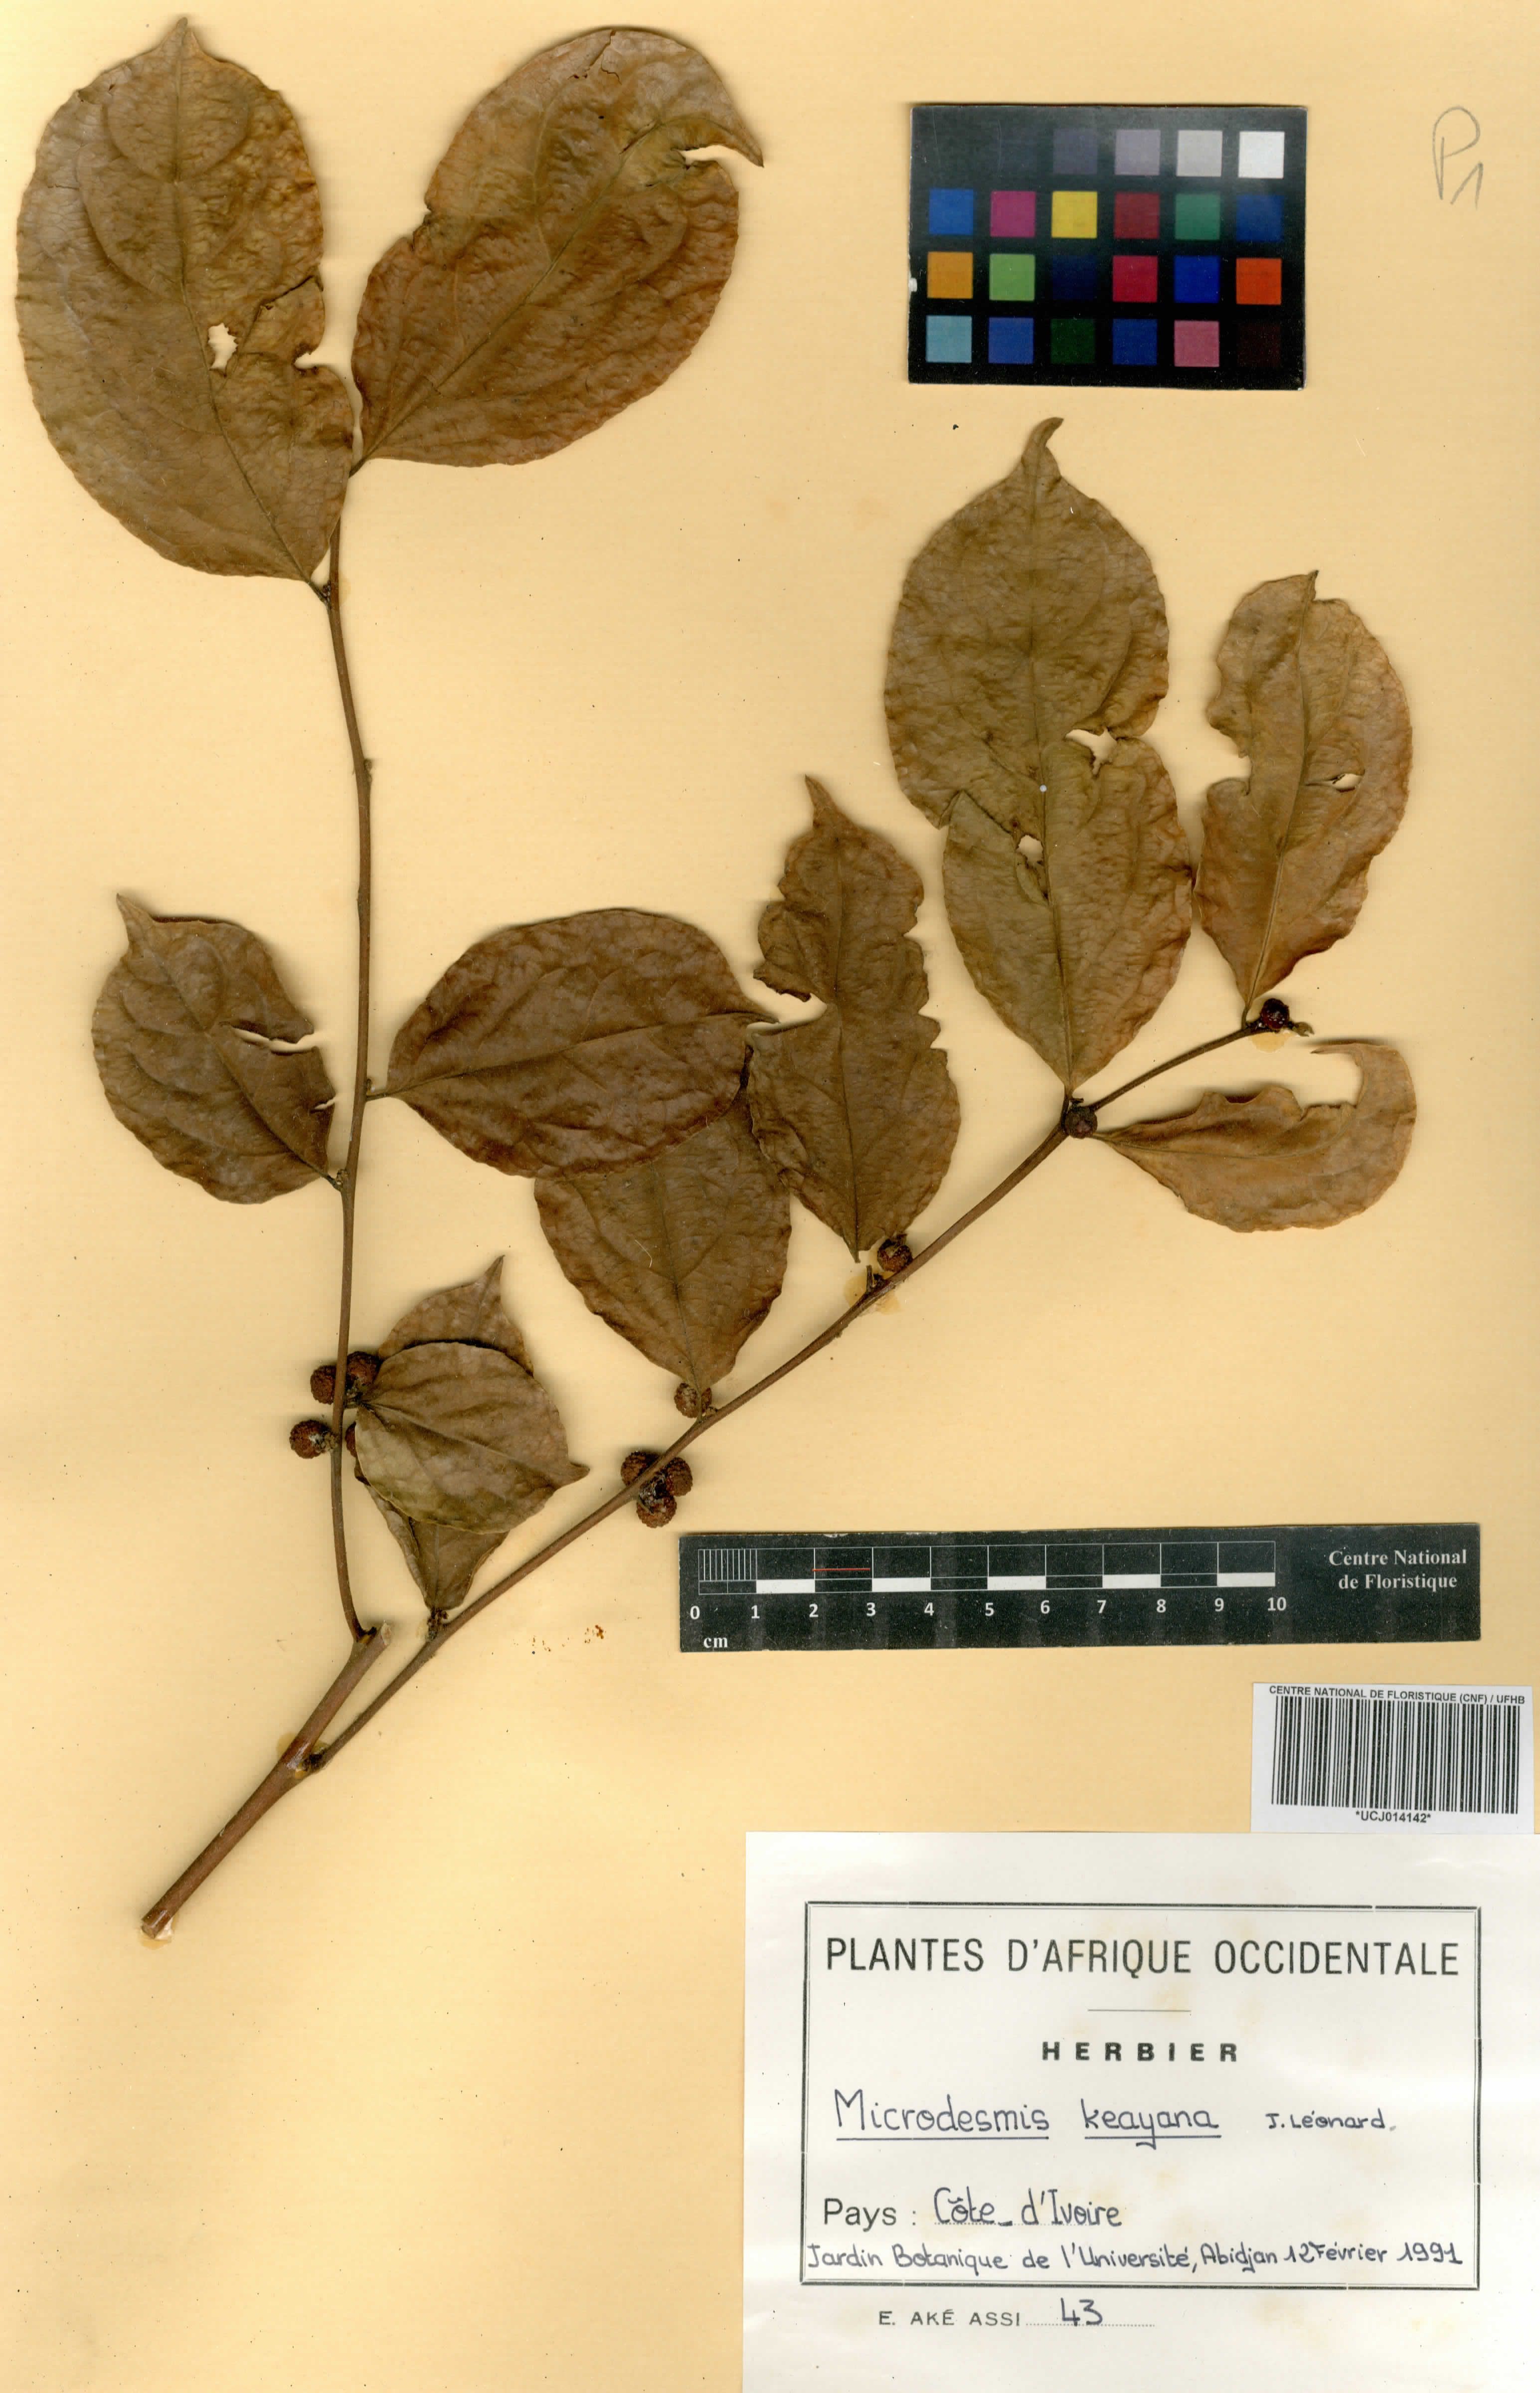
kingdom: Plantae
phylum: Tracheophyta
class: Magnoliopsida
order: Malpighiales
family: Pandaceae
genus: Microdesmis
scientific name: Microdesmis keayana
